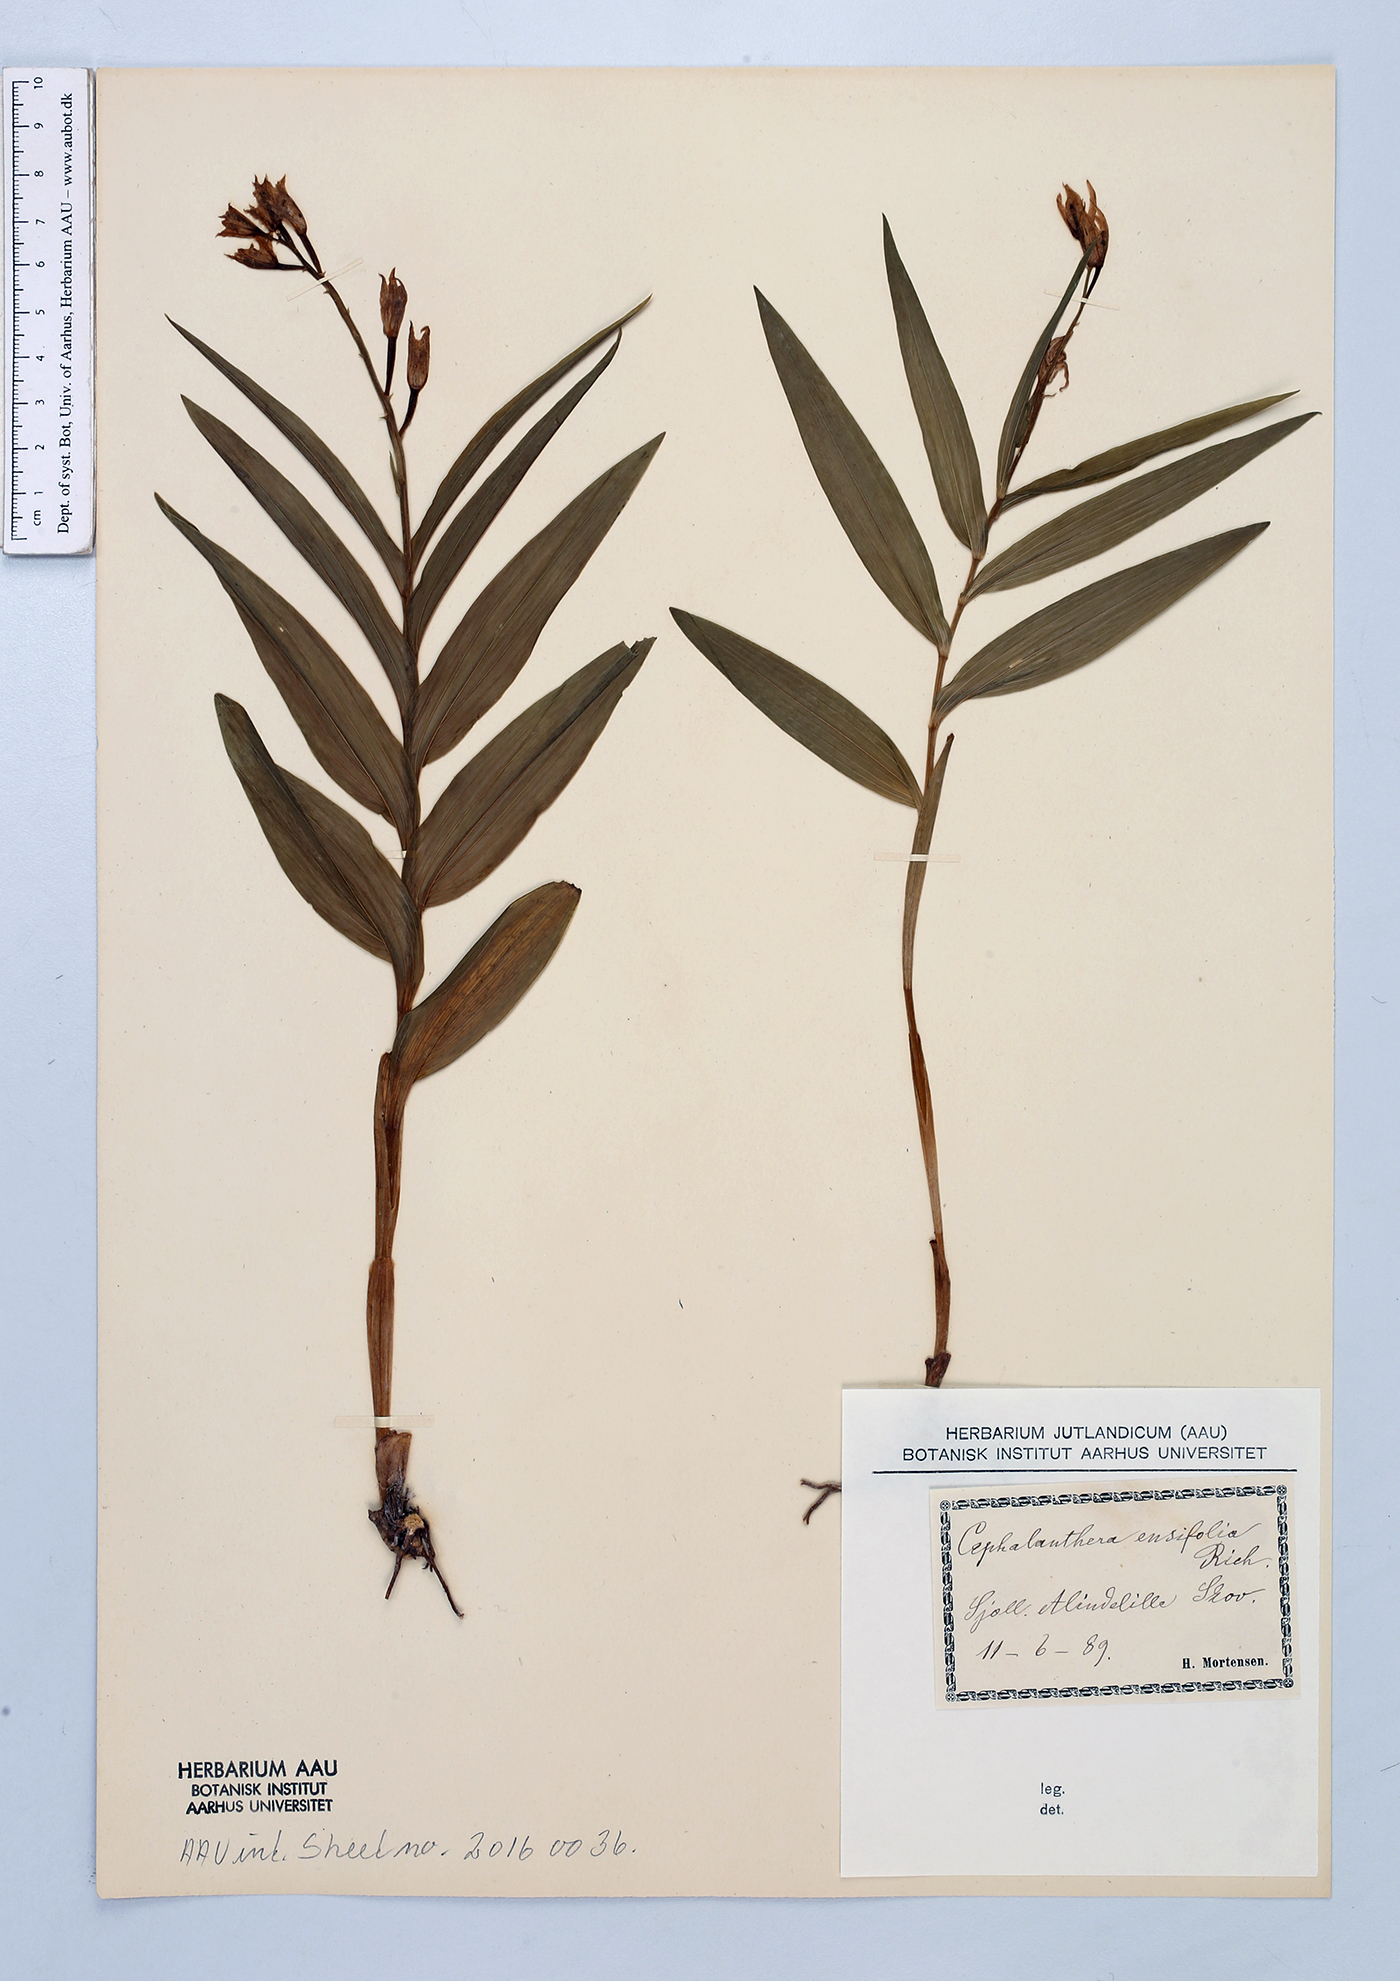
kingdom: Plantae
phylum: Tracheophyta
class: Liliopsida
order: Asparagales
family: Orchidaceae
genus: Cephalanthera
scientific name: Cephalanthera longifolia
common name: Narrow-leaved helleborine
